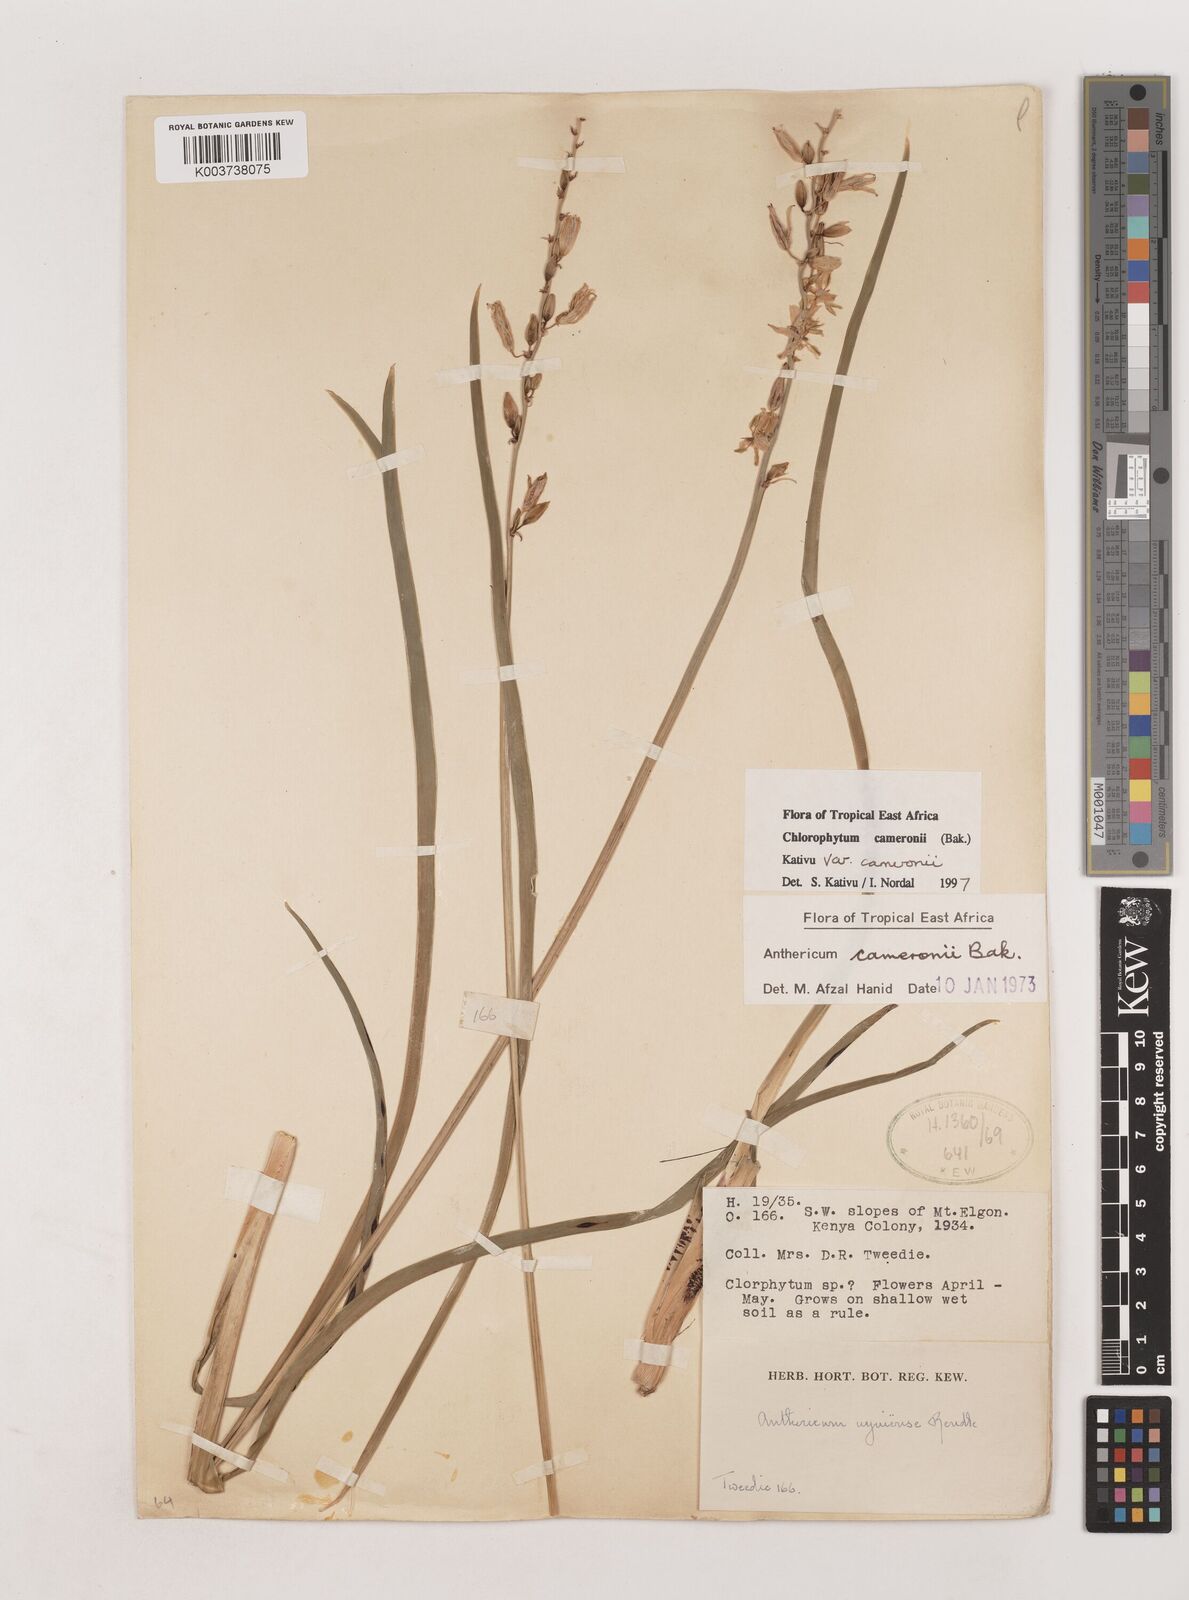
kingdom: Plantae
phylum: Tracheophyta
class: Liliopsida
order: Asparagales
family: Asparagaceae
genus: Chlorophytum
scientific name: Chlorophytum cameronii
